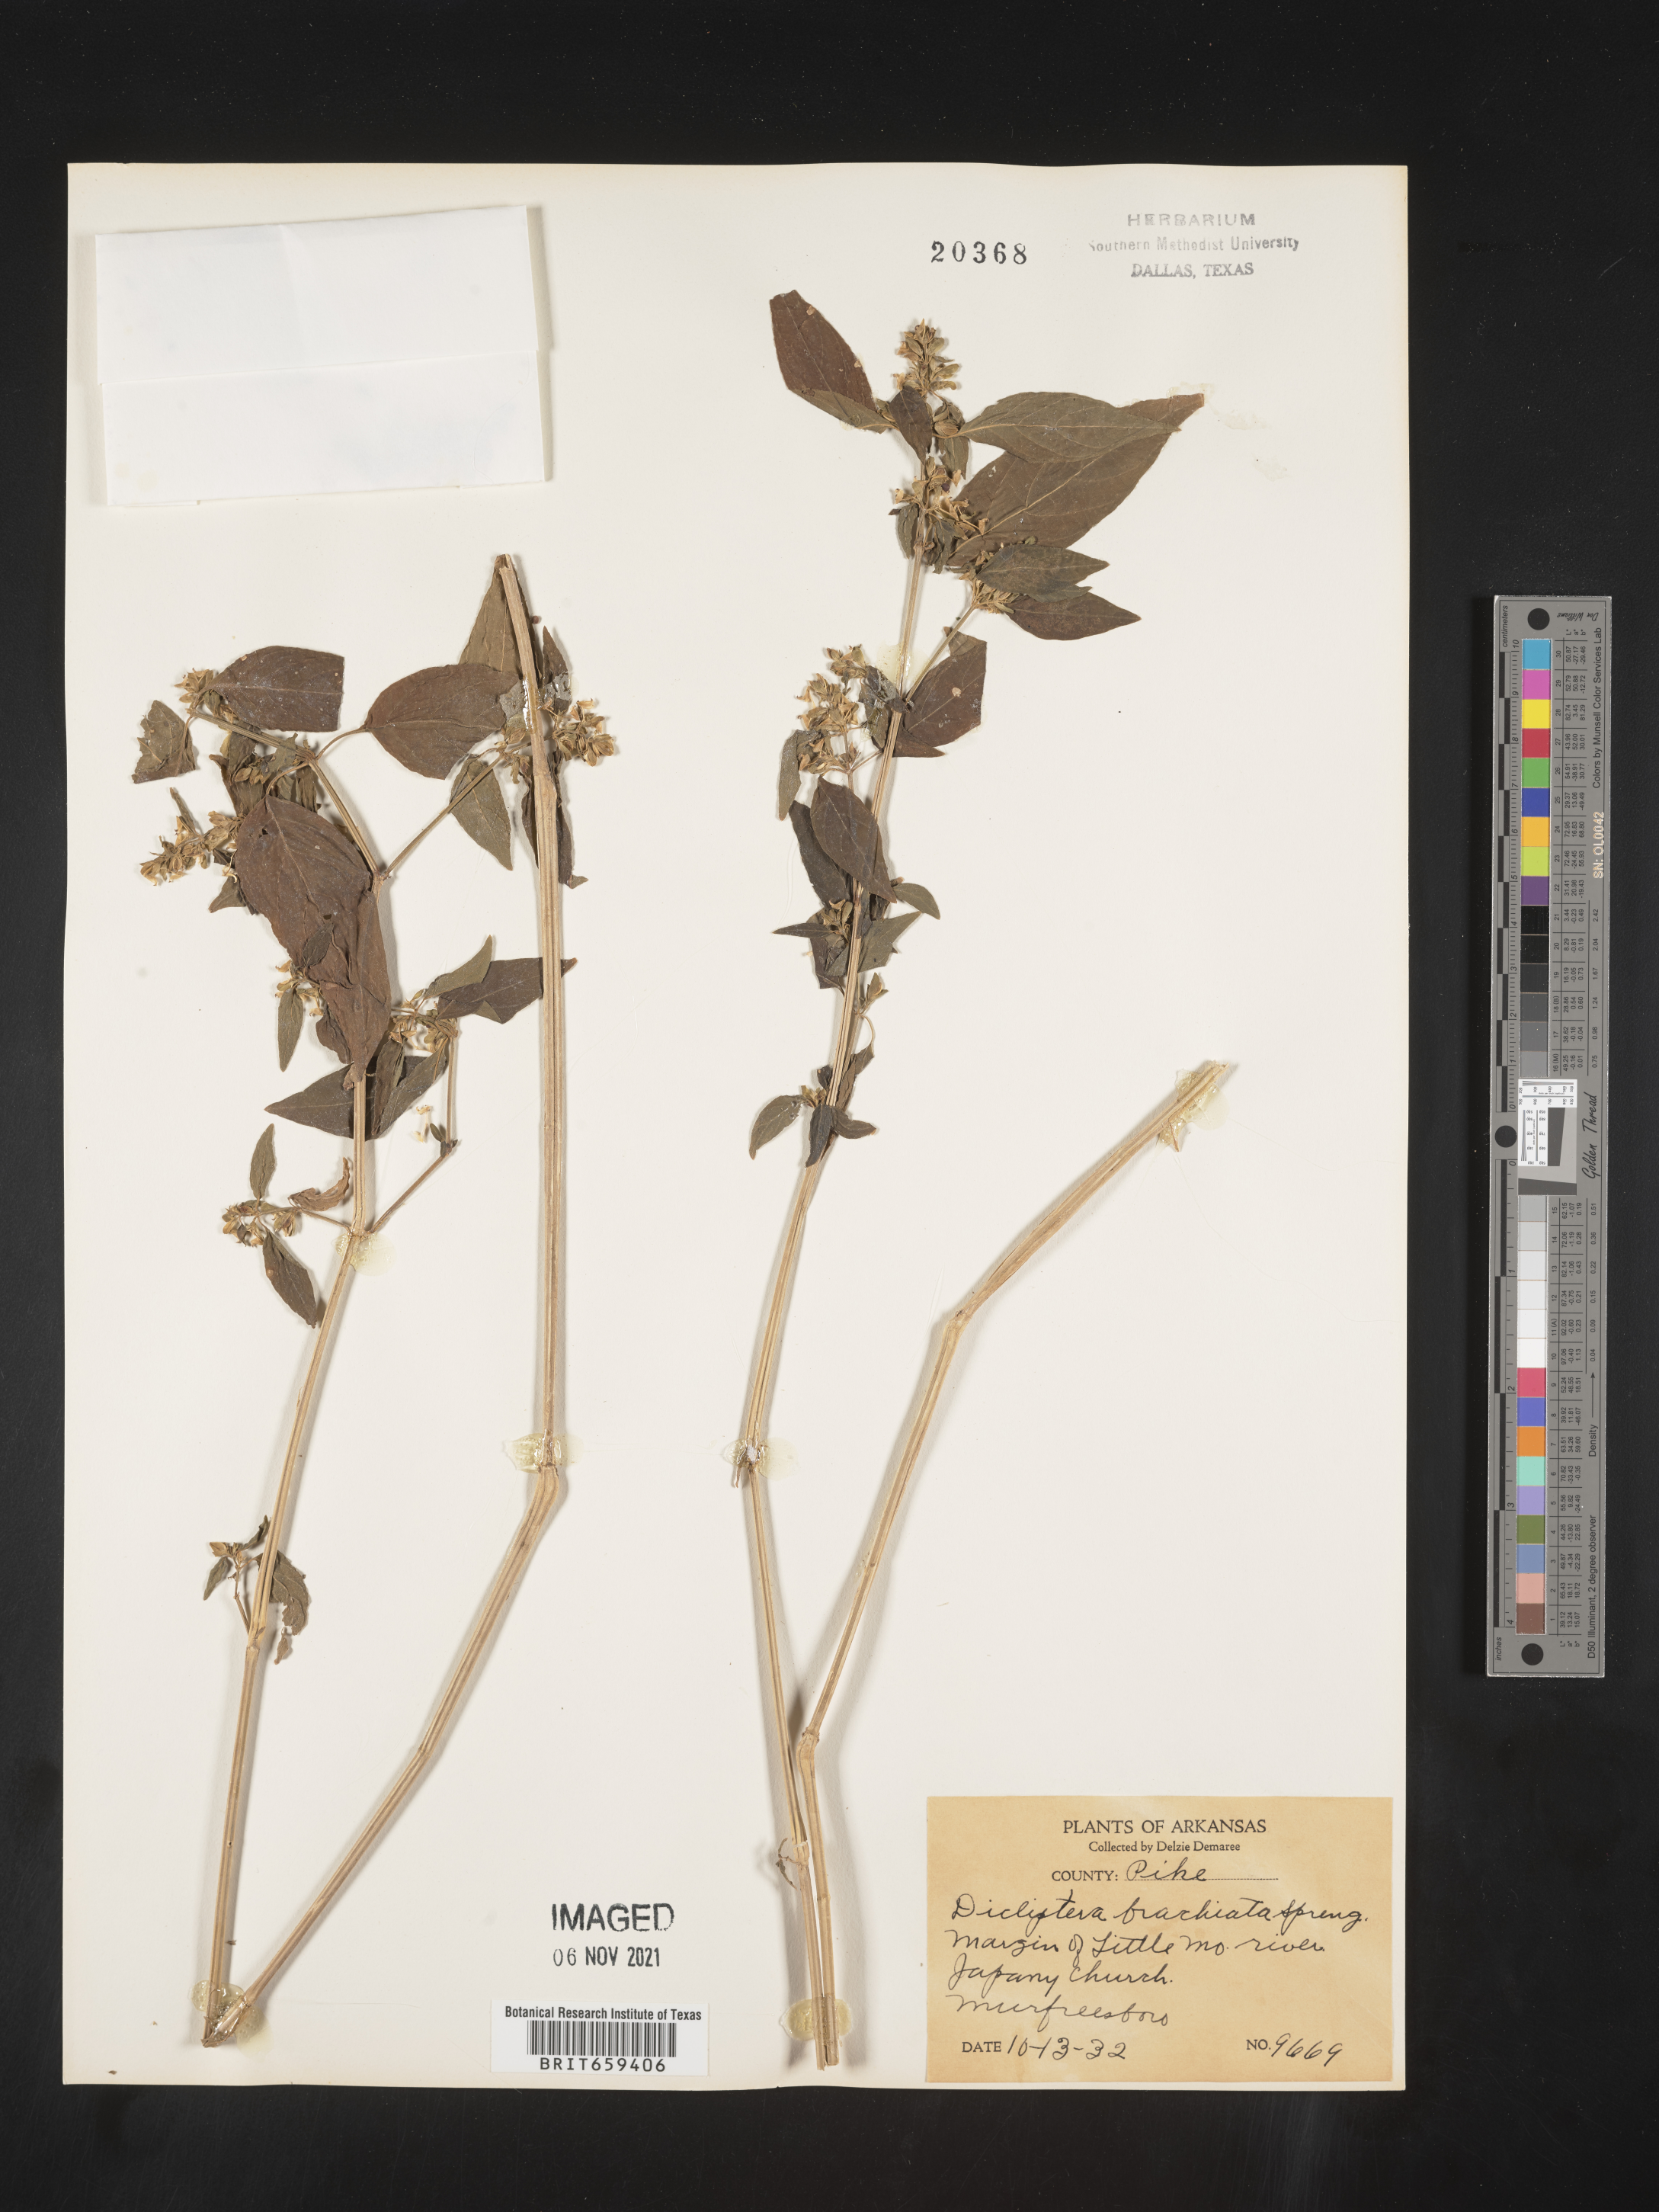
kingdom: Plantae
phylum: Tracheophyta
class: Magnoliopsida
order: Lamiales
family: Acanthaceae
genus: Dicliptera
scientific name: Dicliptera brachiata
